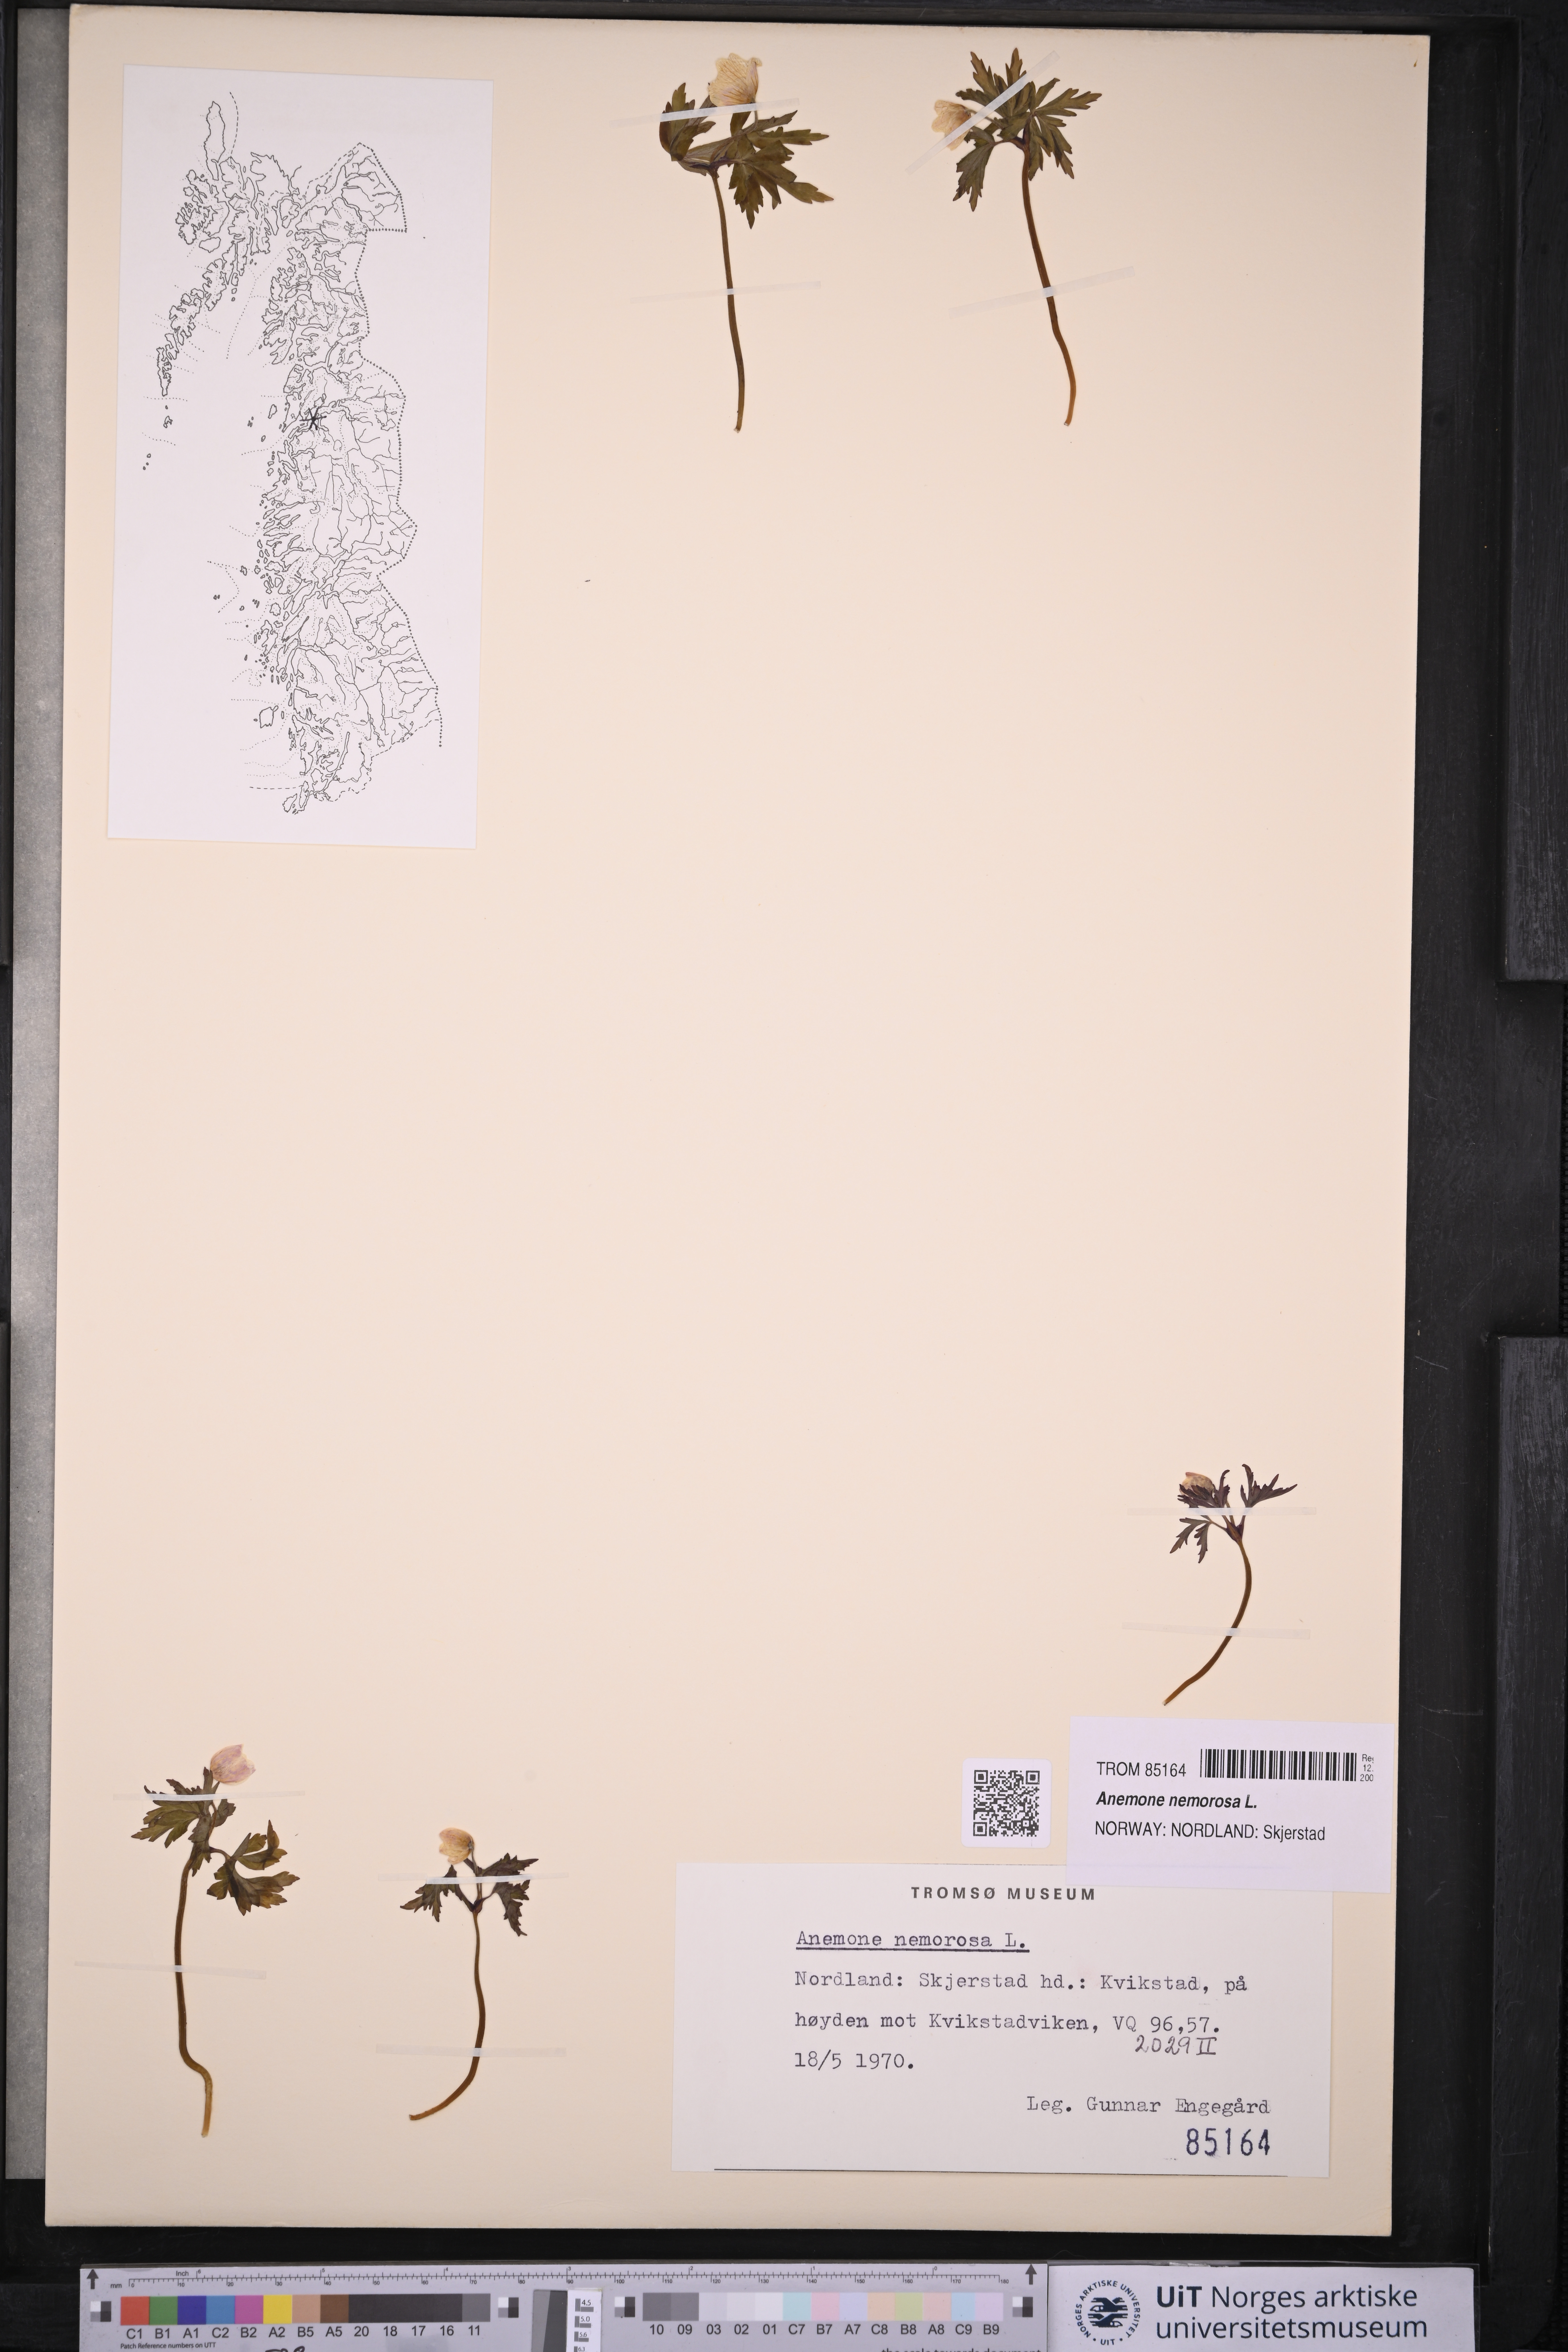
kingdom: Plantae
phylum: Tracheophyta
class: Magnoliopsida
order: Ranunculales
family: Ranunculaceae
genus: Anemone
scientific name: Anemone nemorosa
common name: Wood anemone
